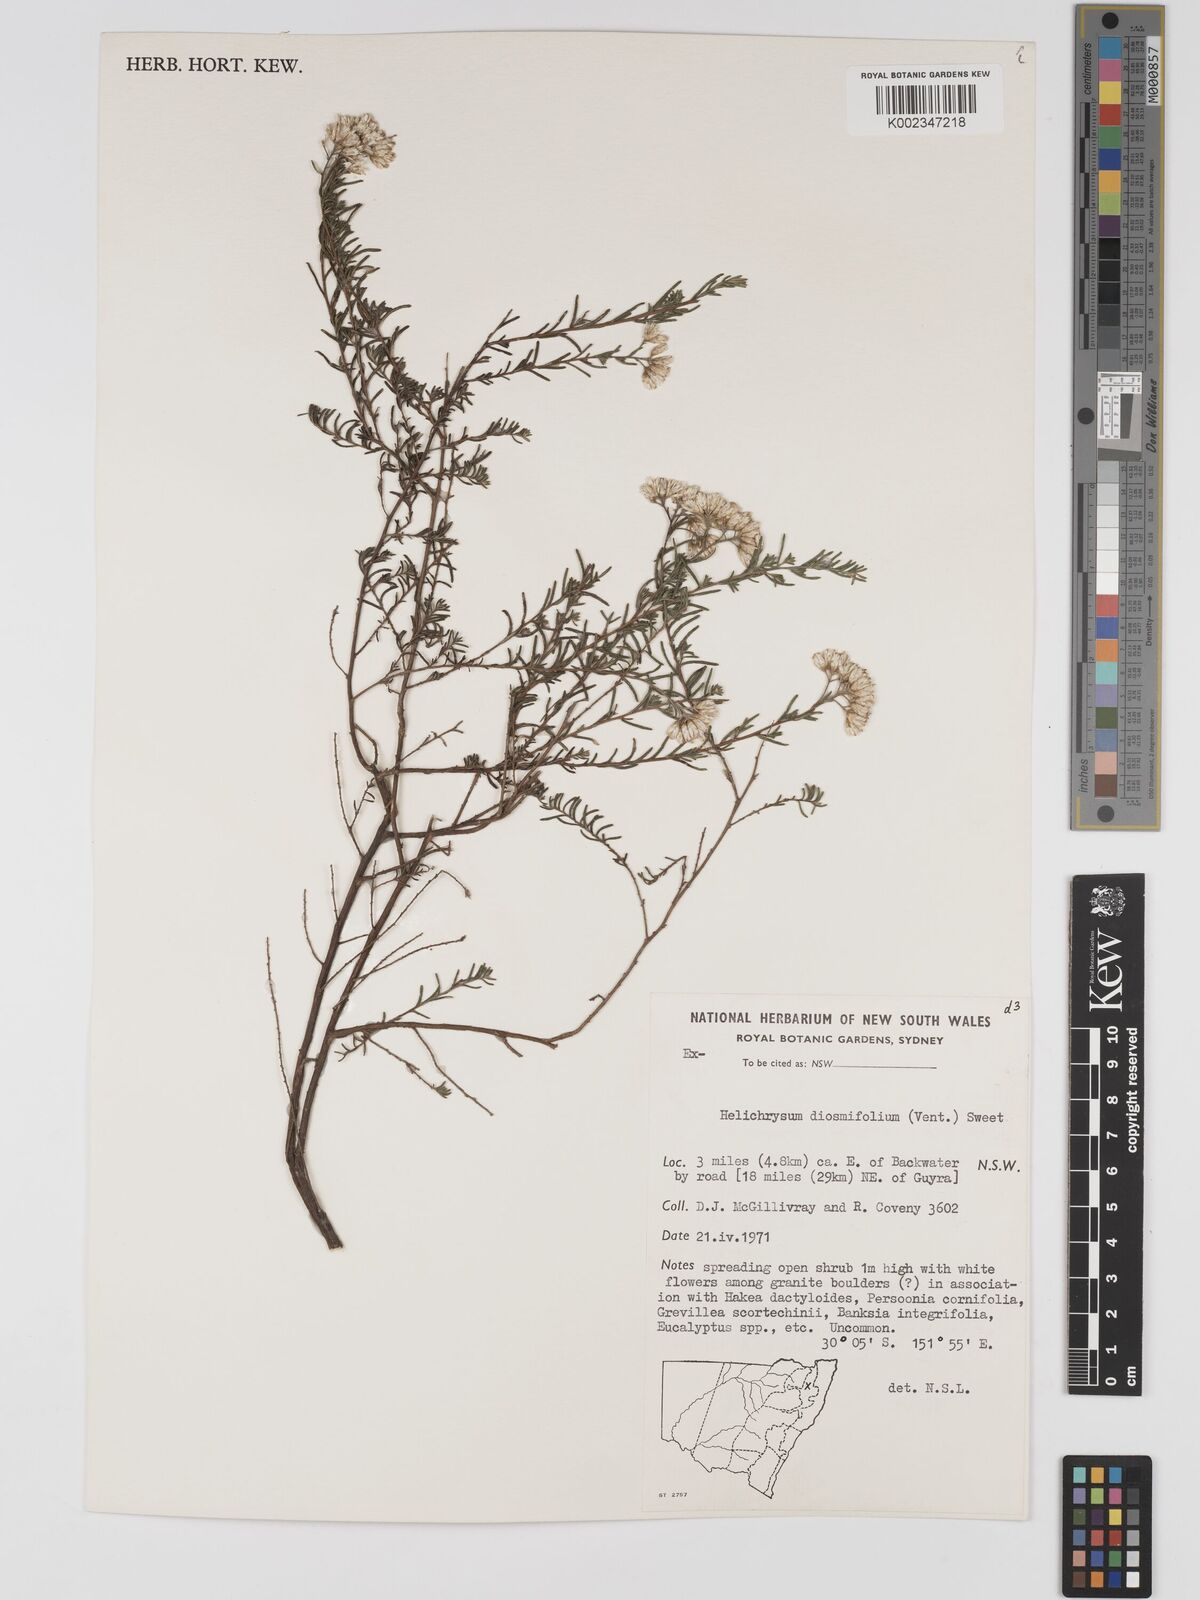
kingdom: Plantae
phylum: Tracheophyta
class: Magnoliopsida
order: Asterales
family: Asteraceae
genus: Ozothamnus
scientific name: Ozothamnus diosmifolius
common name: White-dogwood
